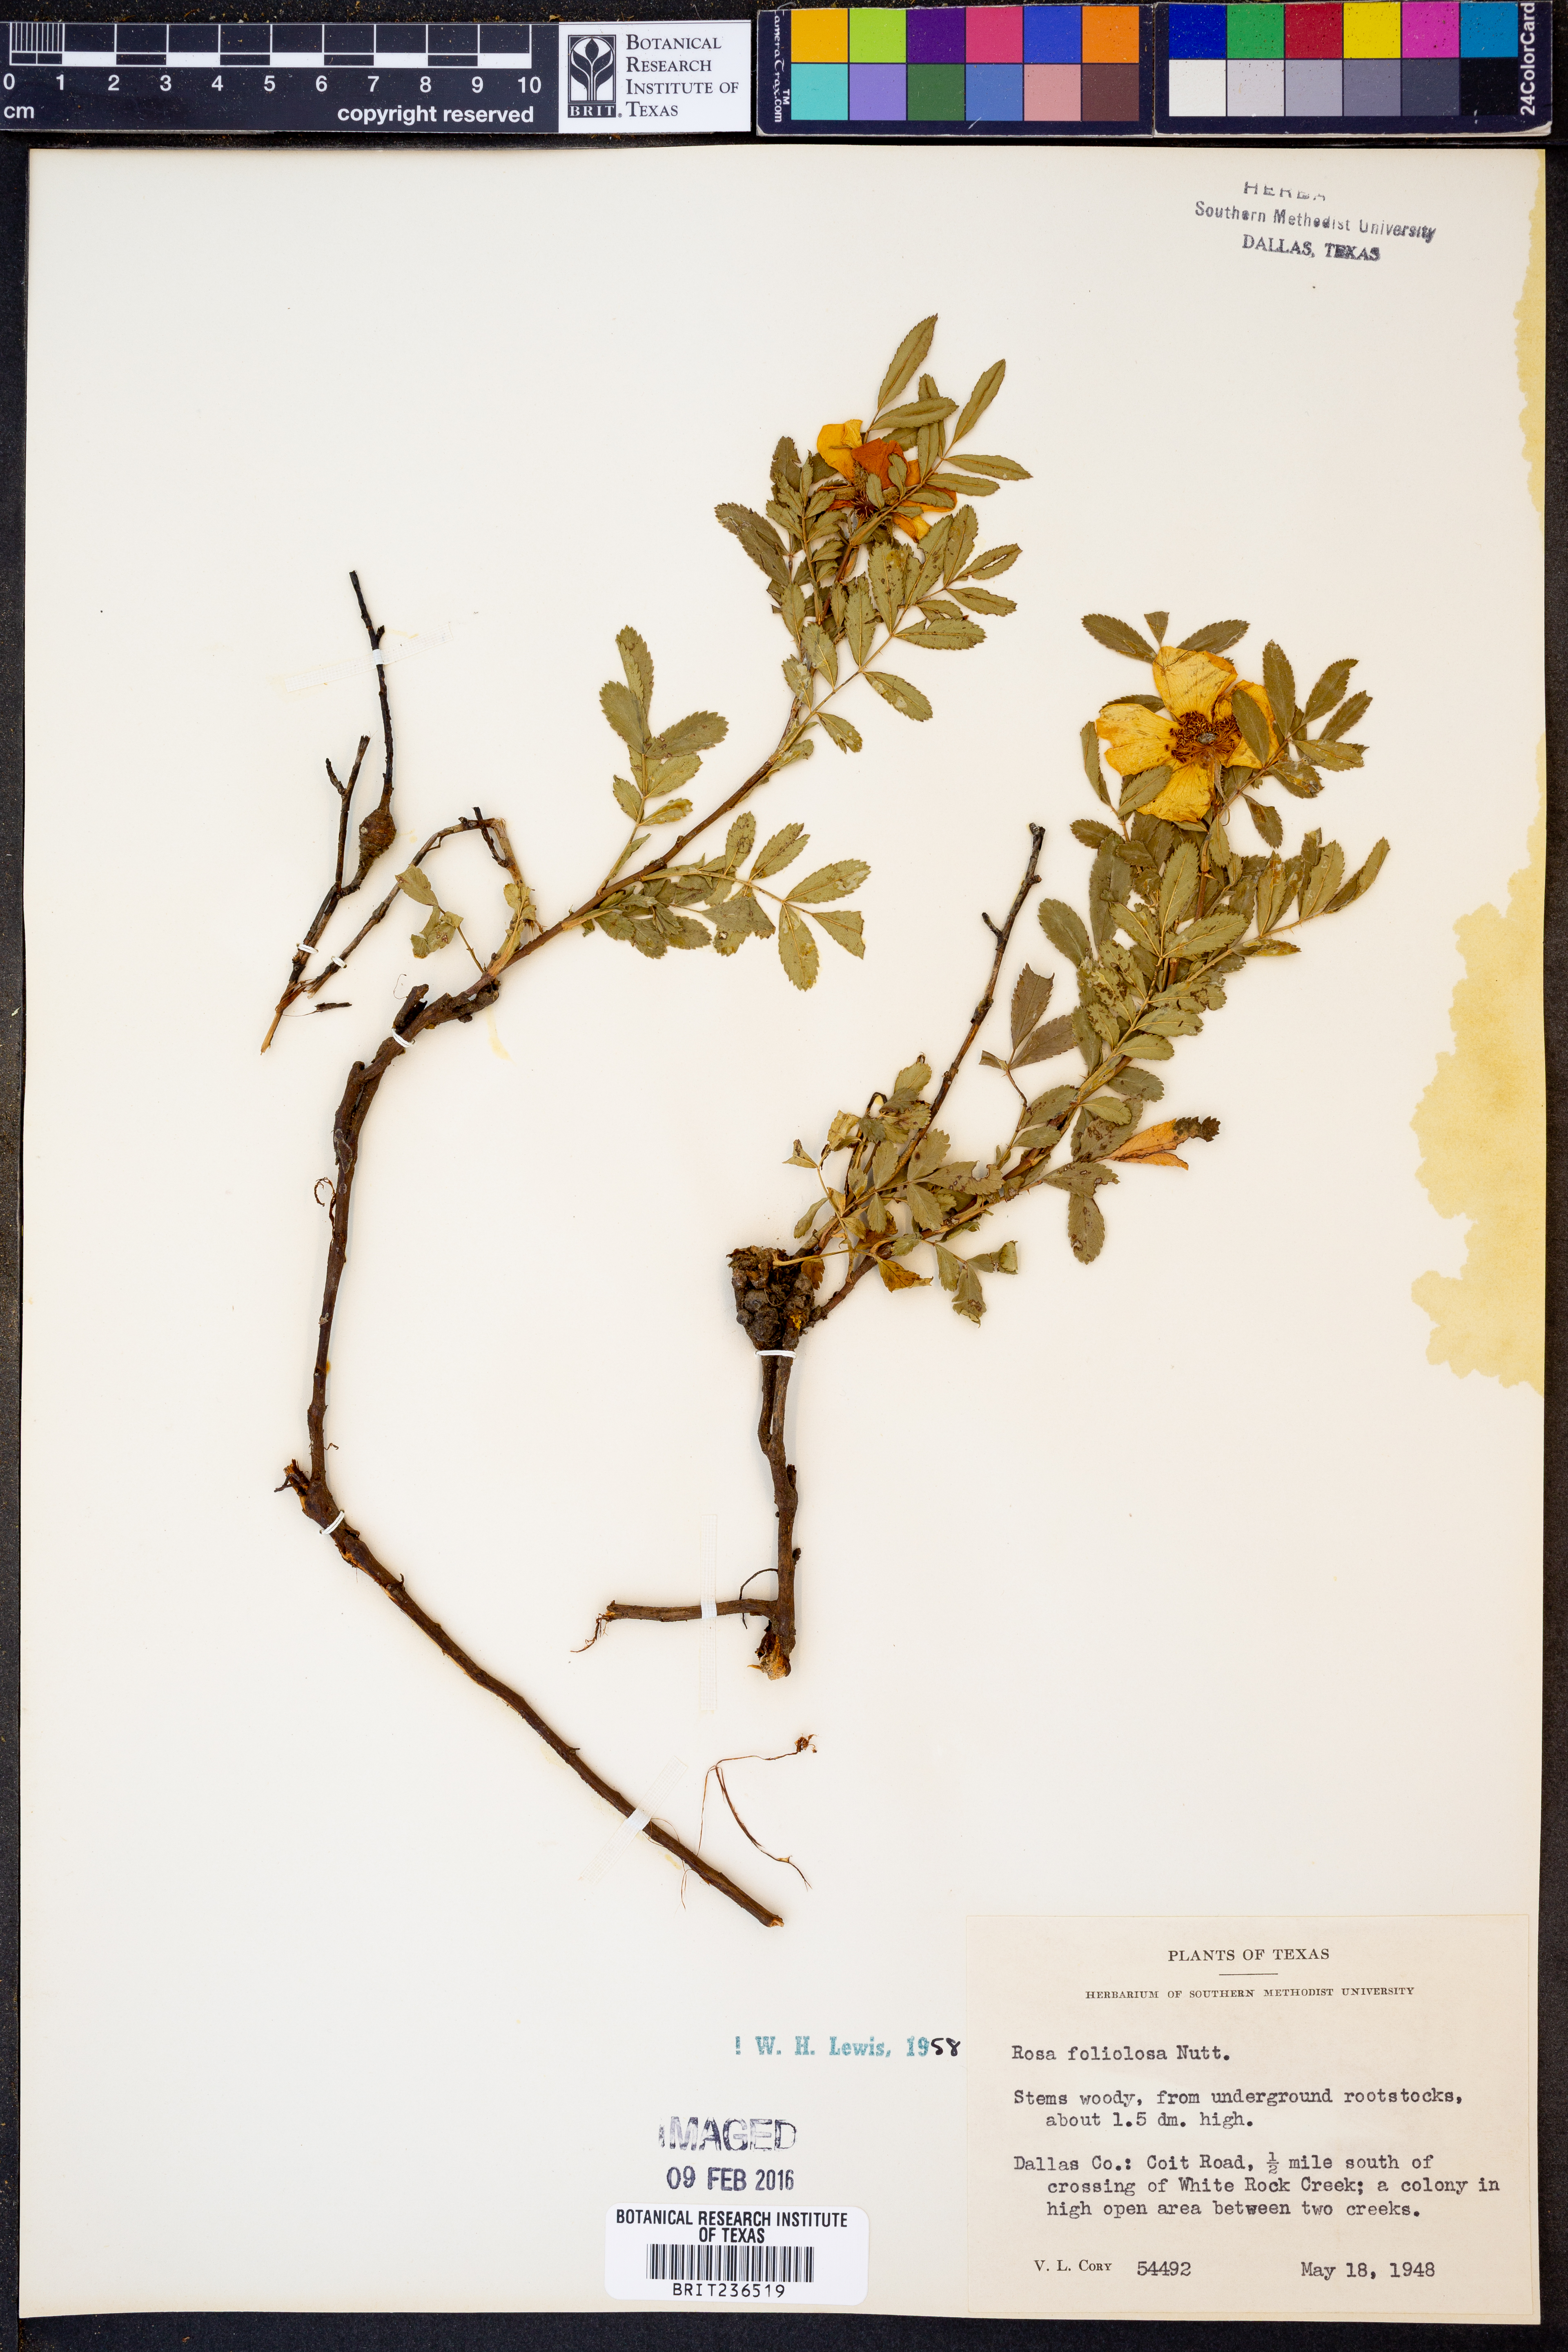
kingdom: Plantae
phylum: Tracheophyta
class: Magnoliopsida
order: Rosales
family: Rosaceae
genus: Rosa
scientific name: Rosa foliolosa
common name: White prairie rose
